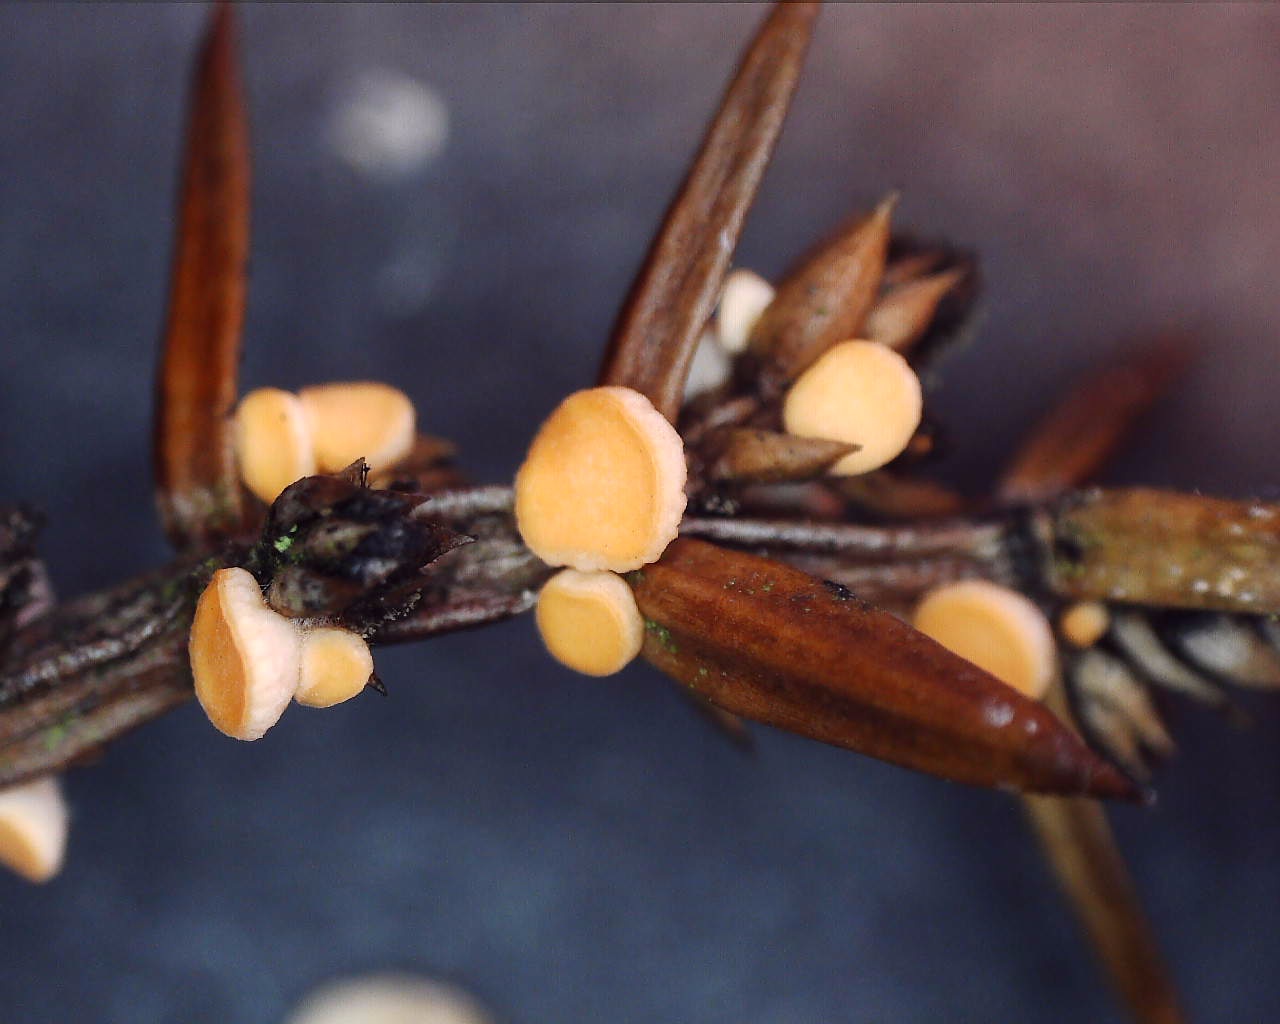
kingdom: Fungi
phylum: Ascomycota
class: Pezizomycetes
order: Pezizales
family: Sarcoscyphaceae
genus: Pithya
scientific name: Pithya cupressina
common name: lille dukatbæger
